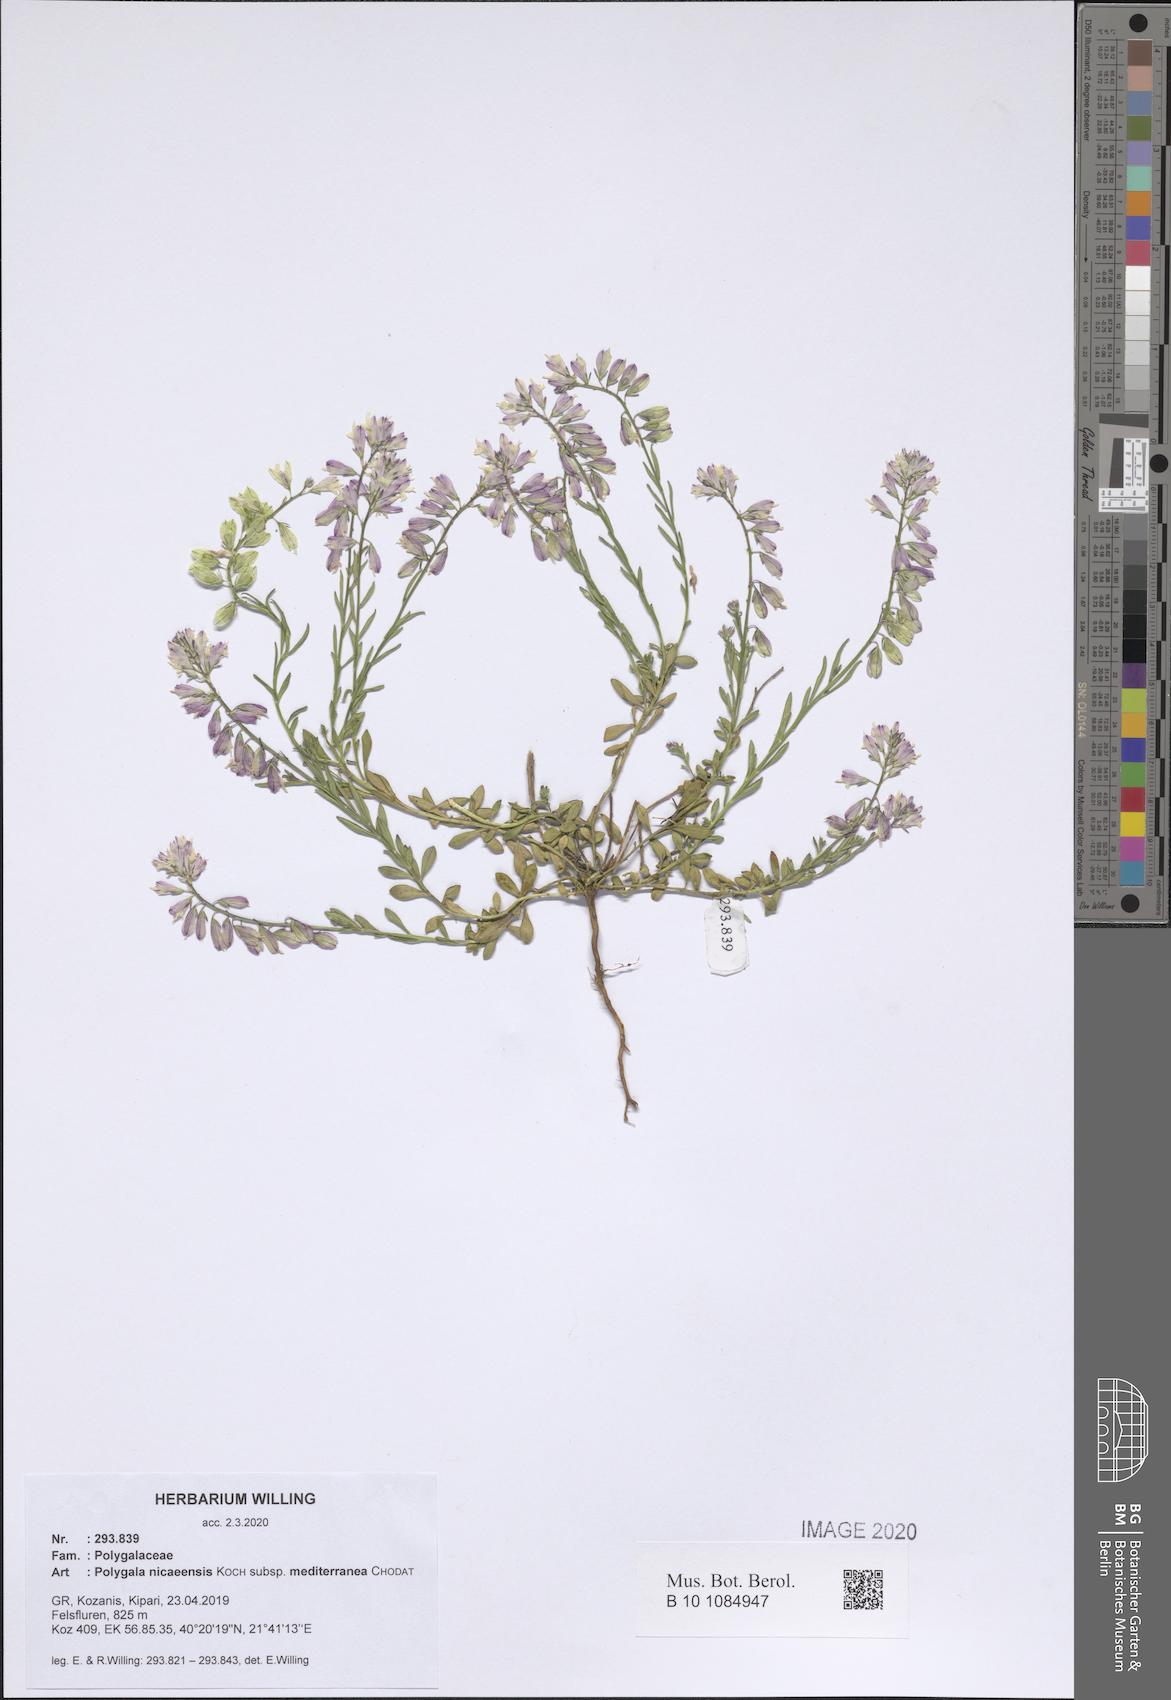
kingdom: Plantae
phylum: Tracheophyta
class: Magnoliopsida
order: Fabales
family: Polygalaceae
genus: Polygala
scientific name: Polygala nicaeensis
